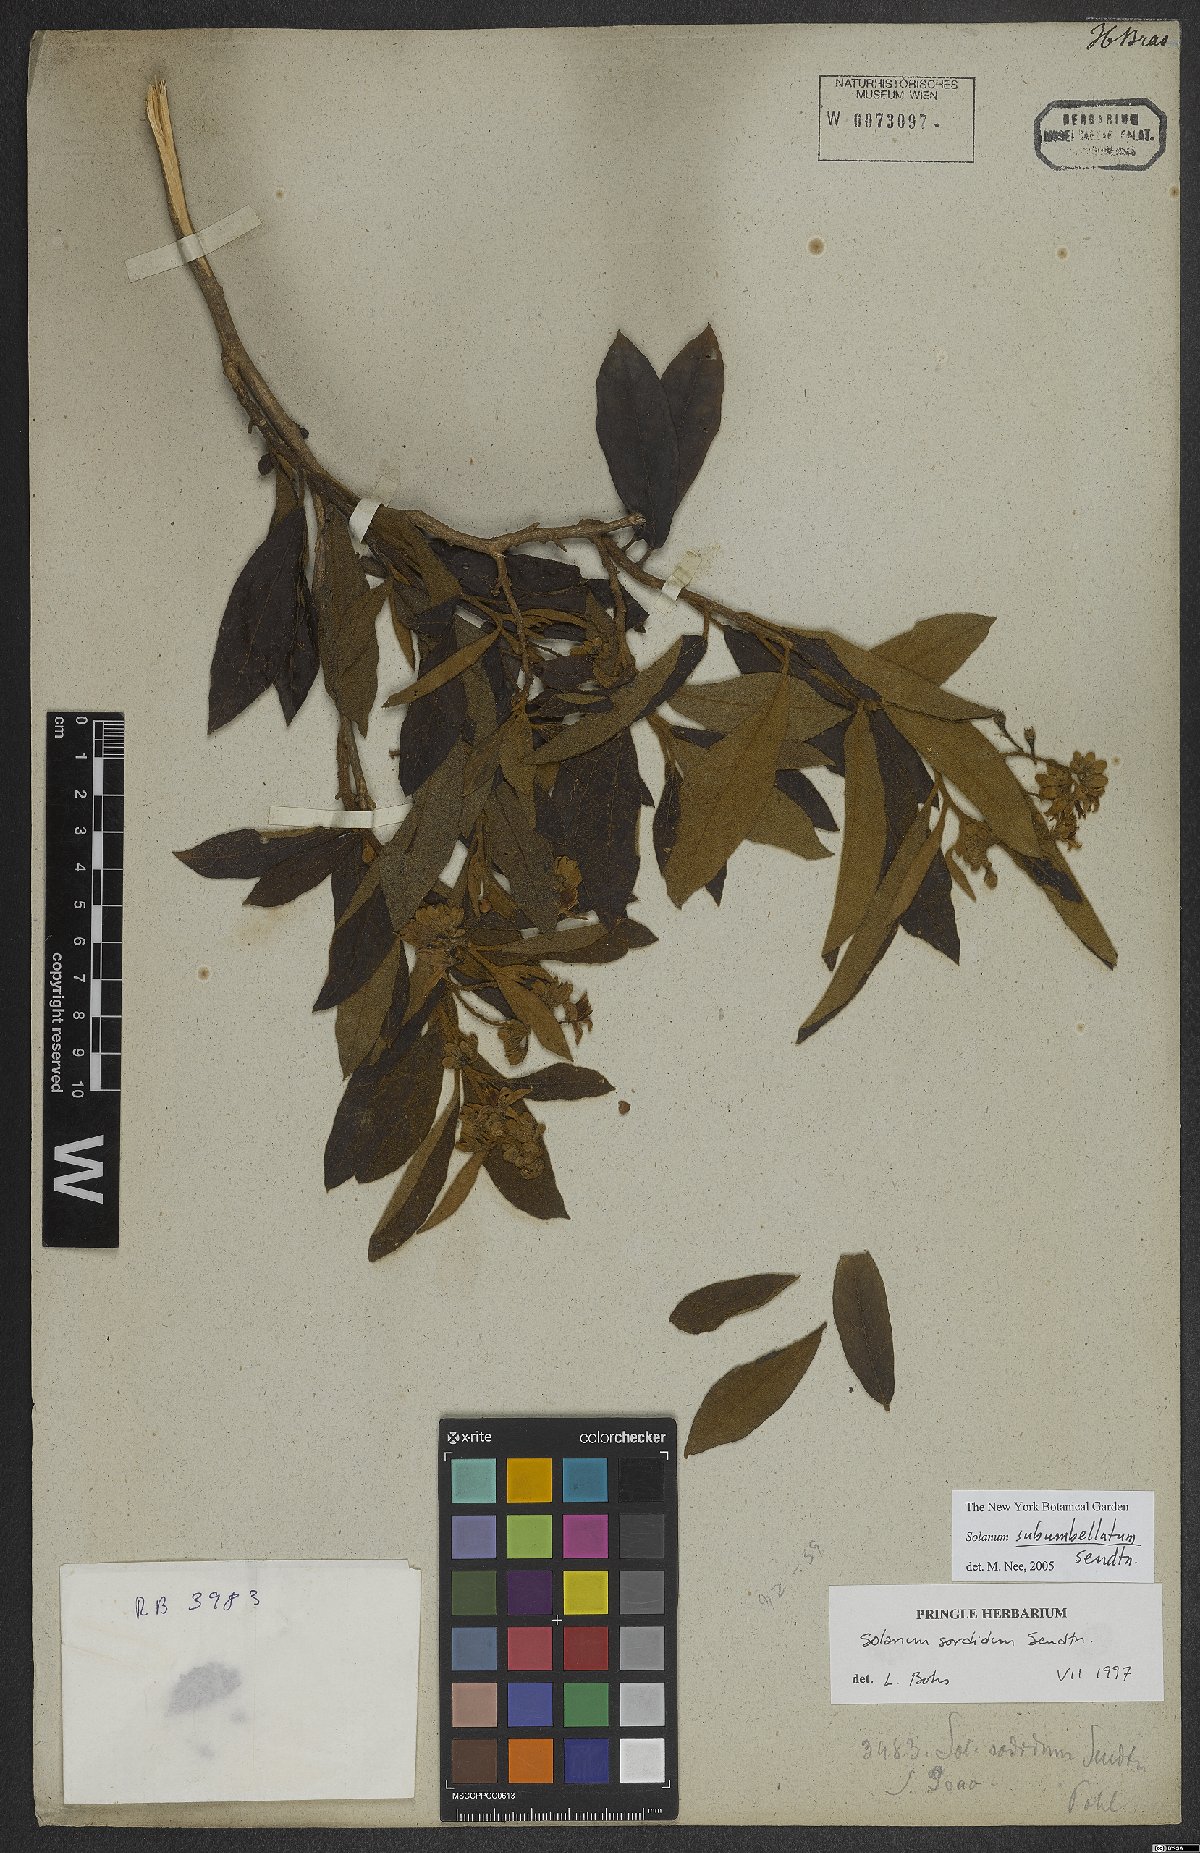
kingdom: Plantae
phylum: Tracheophyta
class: Magnoliopsida
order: Solanales
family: Solanaceae
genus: Solanum
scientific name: Solanum subumbellatum
